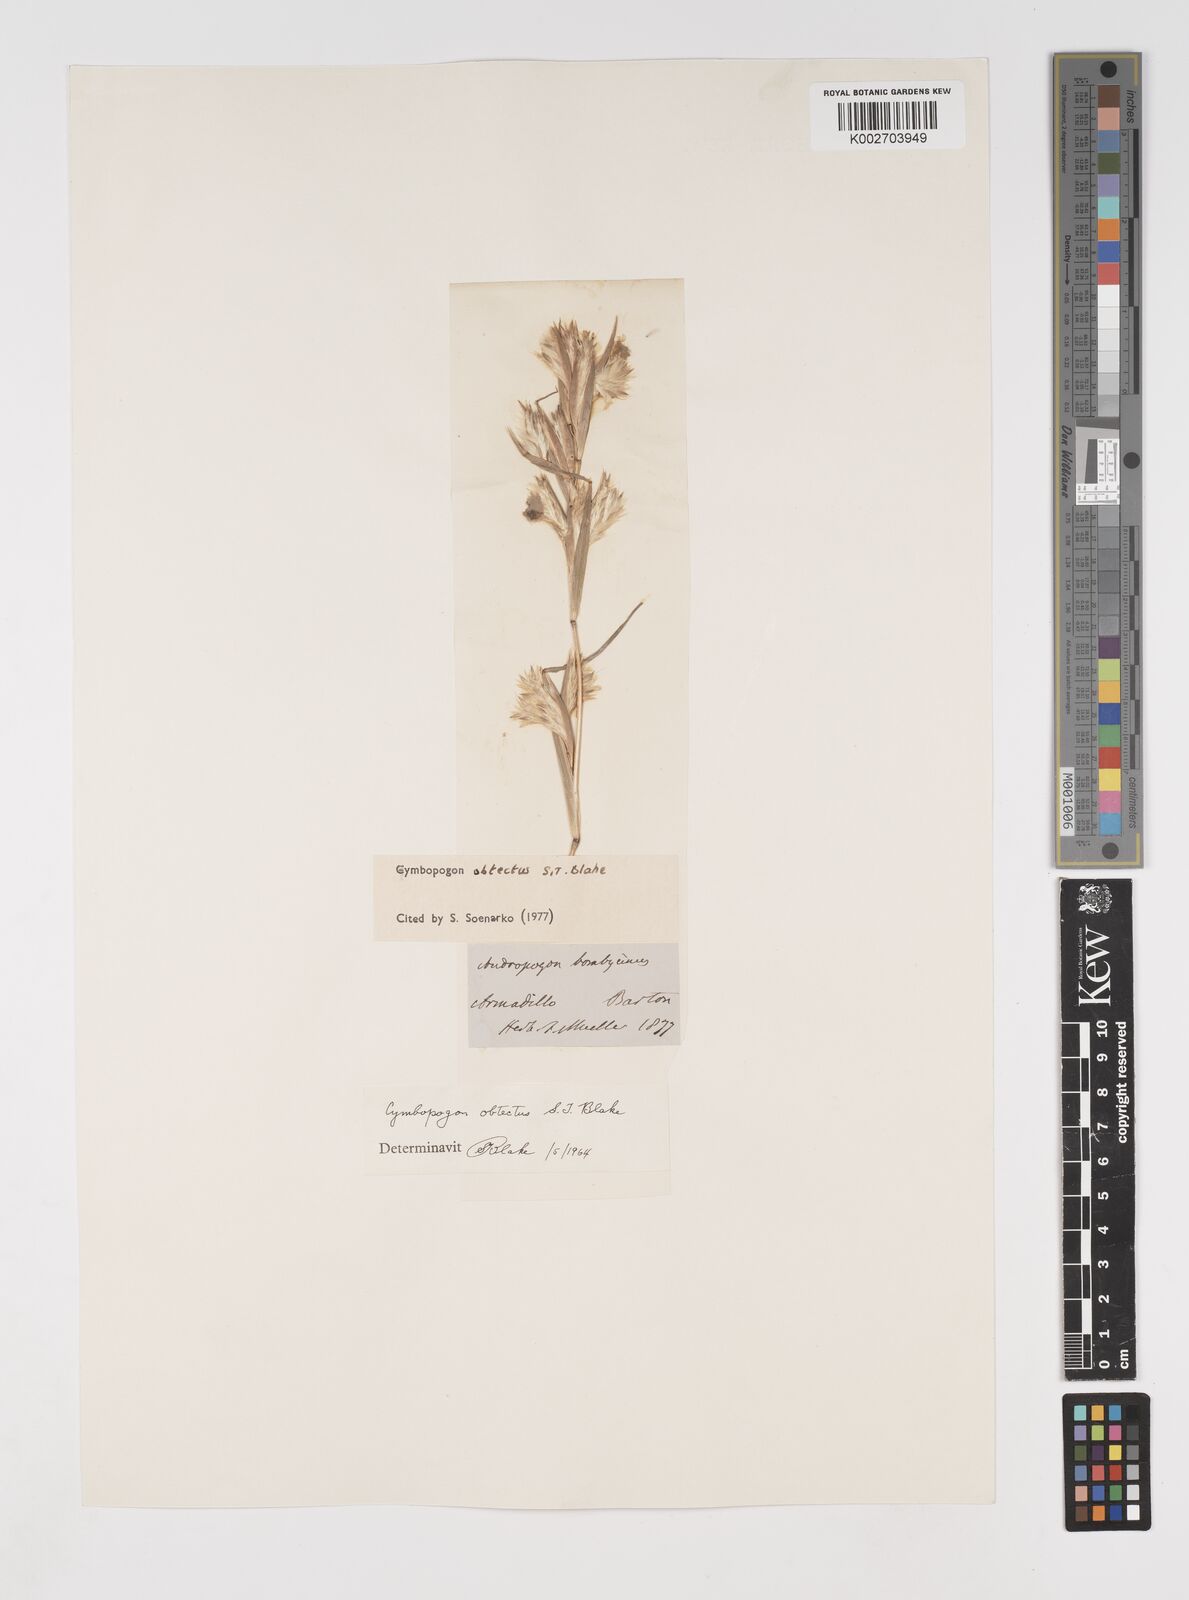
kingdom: Plantae
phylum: Tracheophyta
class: Liliopsida
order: Poales
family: Poaceae
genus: Cymbopogon
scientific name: Cymbopogon obtectus
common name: Silky heads
